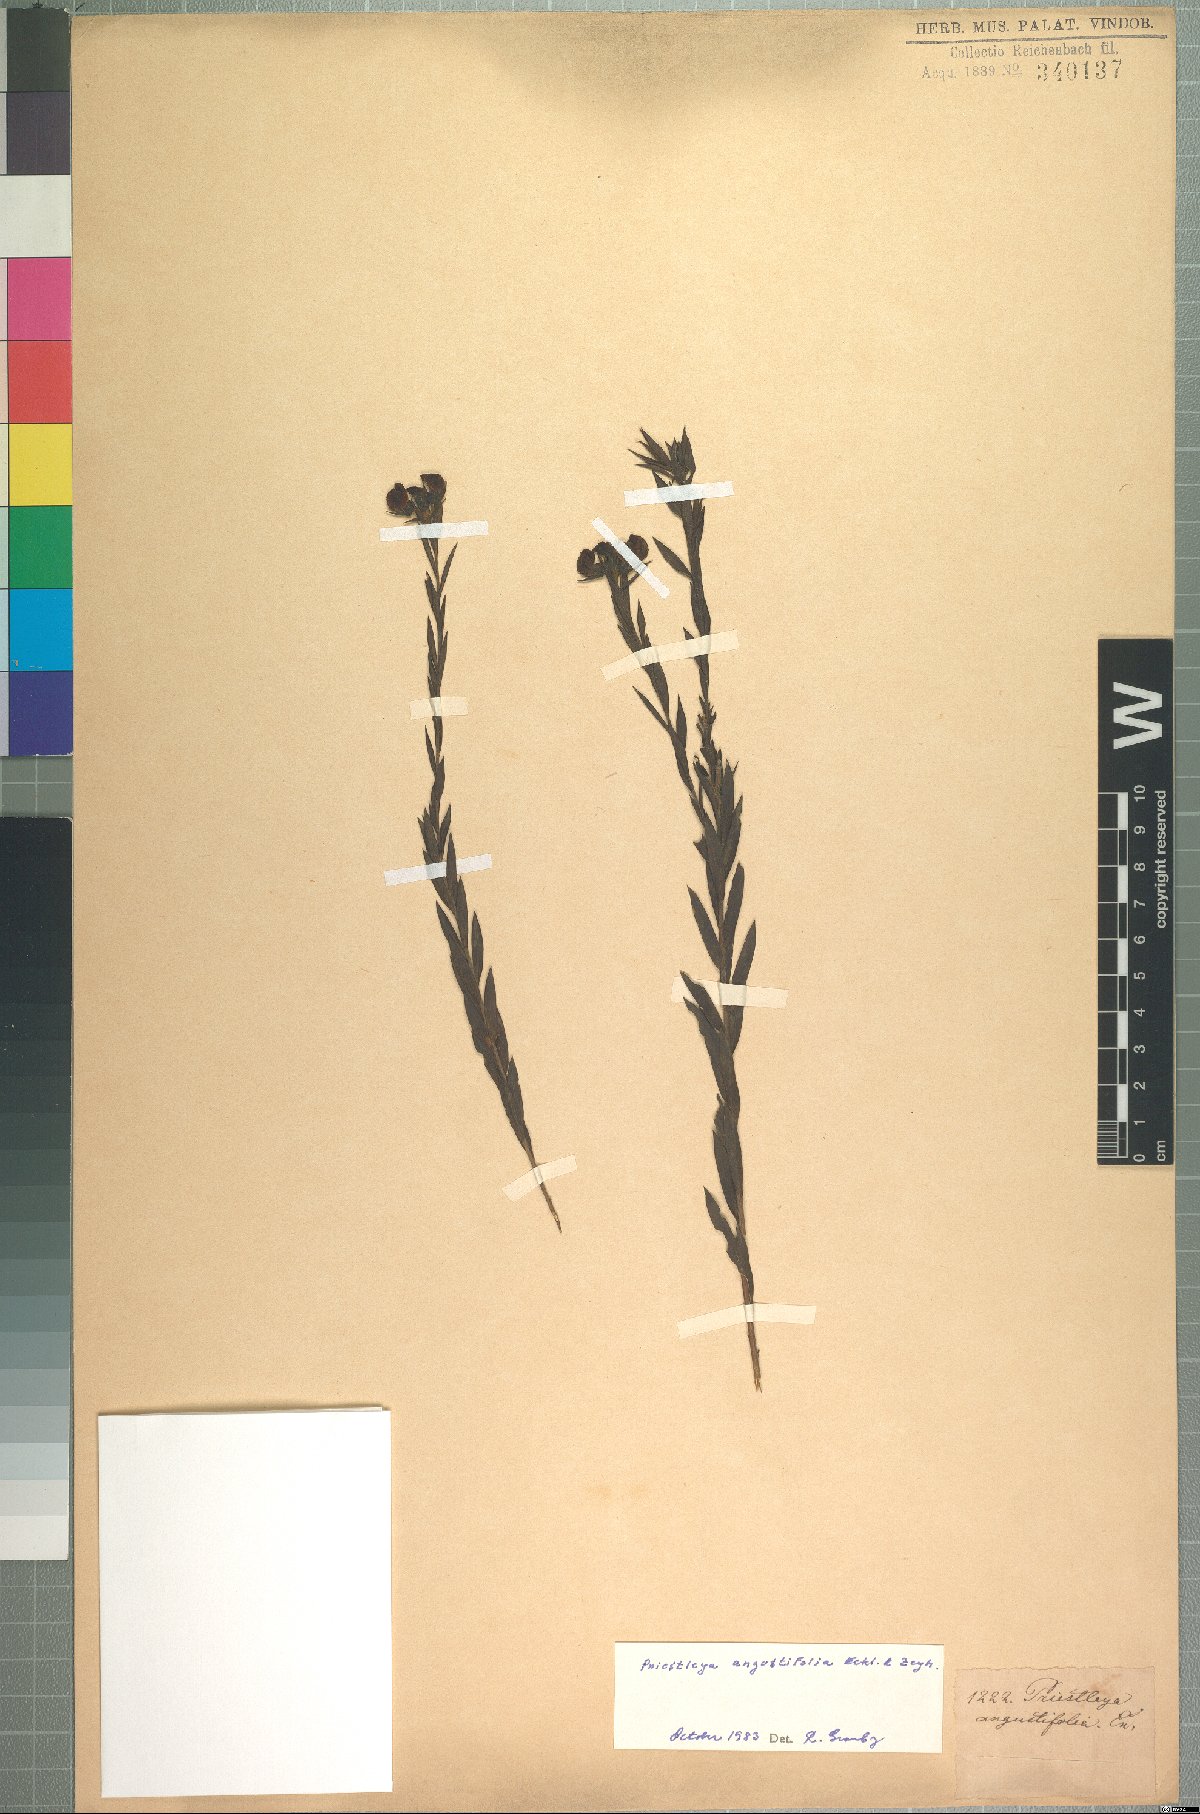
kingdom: Plantae
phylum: Tracheophyta
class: Magnoliopsida
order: Fabales
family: Fabaceae
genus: Liparia
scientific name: Liparia angustifolia
